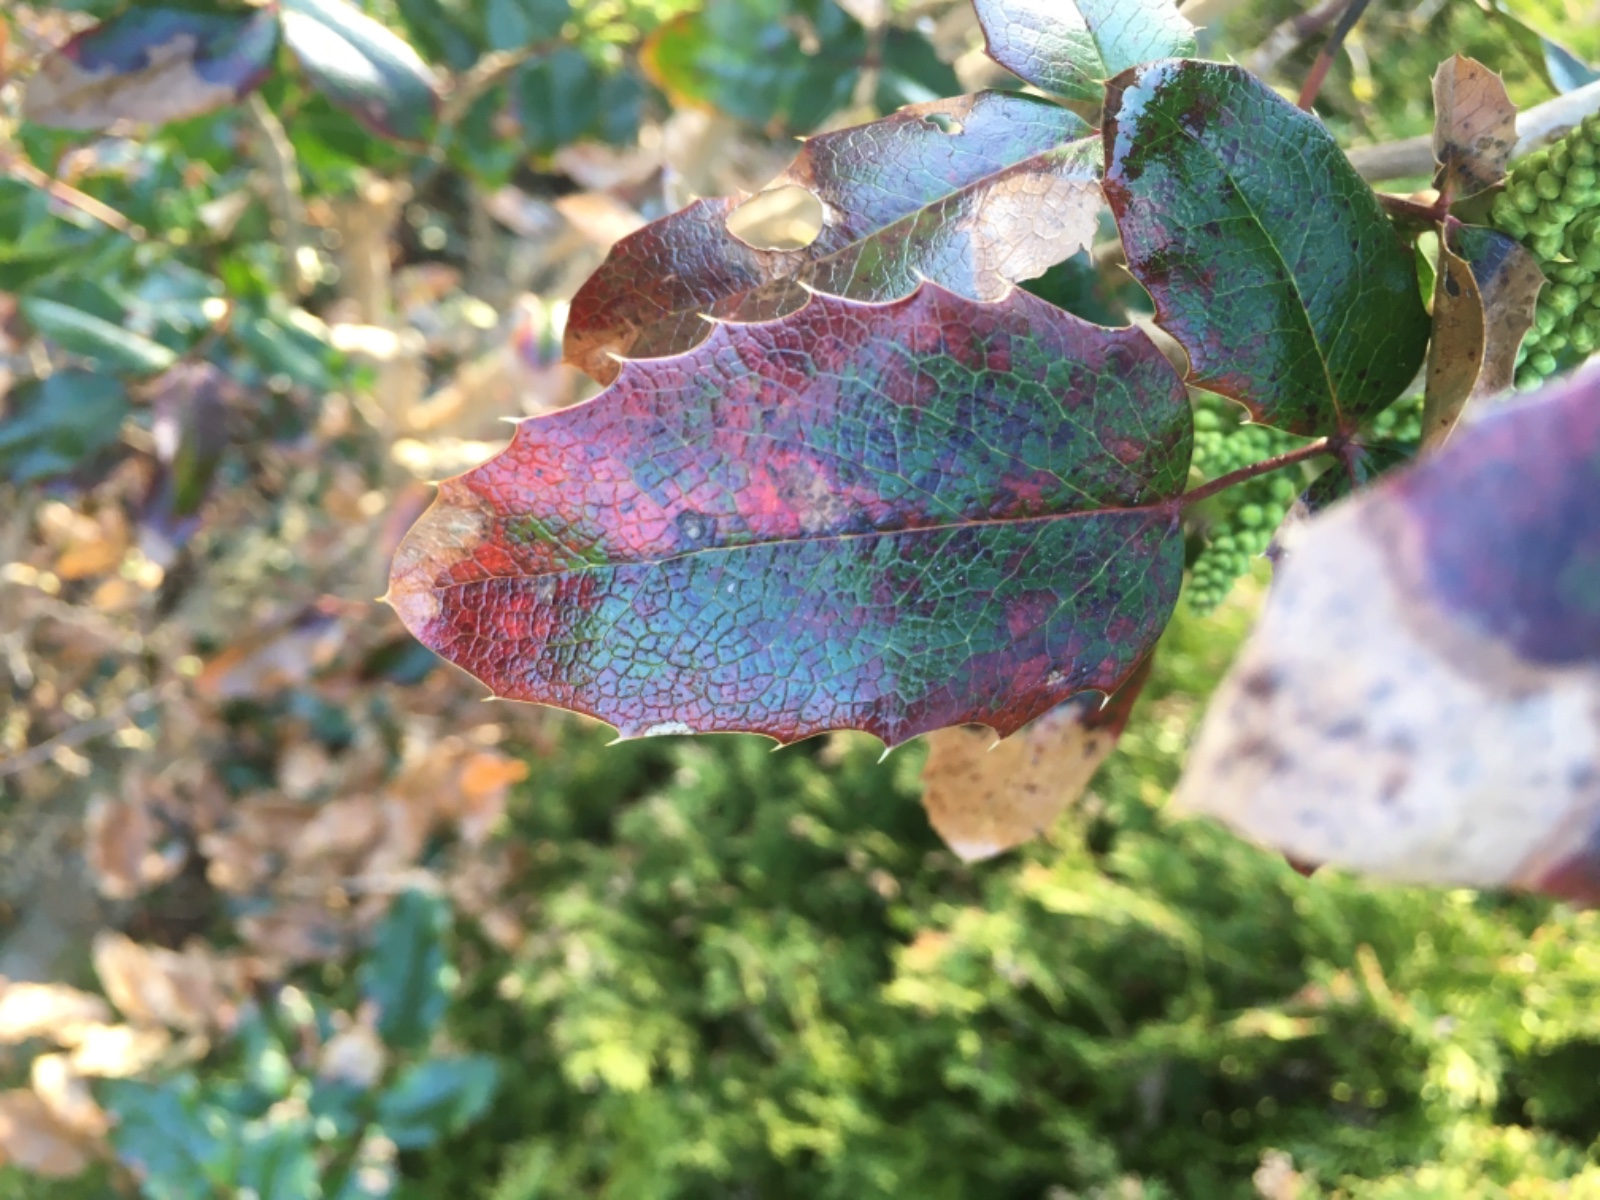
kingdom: Fungi
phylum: Basidiomycota
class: Pucciniomycetes
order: Pucciniales
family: Pucciniaceae
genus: Cumminsiella
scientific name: Cumminsiella mirabilissima
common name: mahonierust
